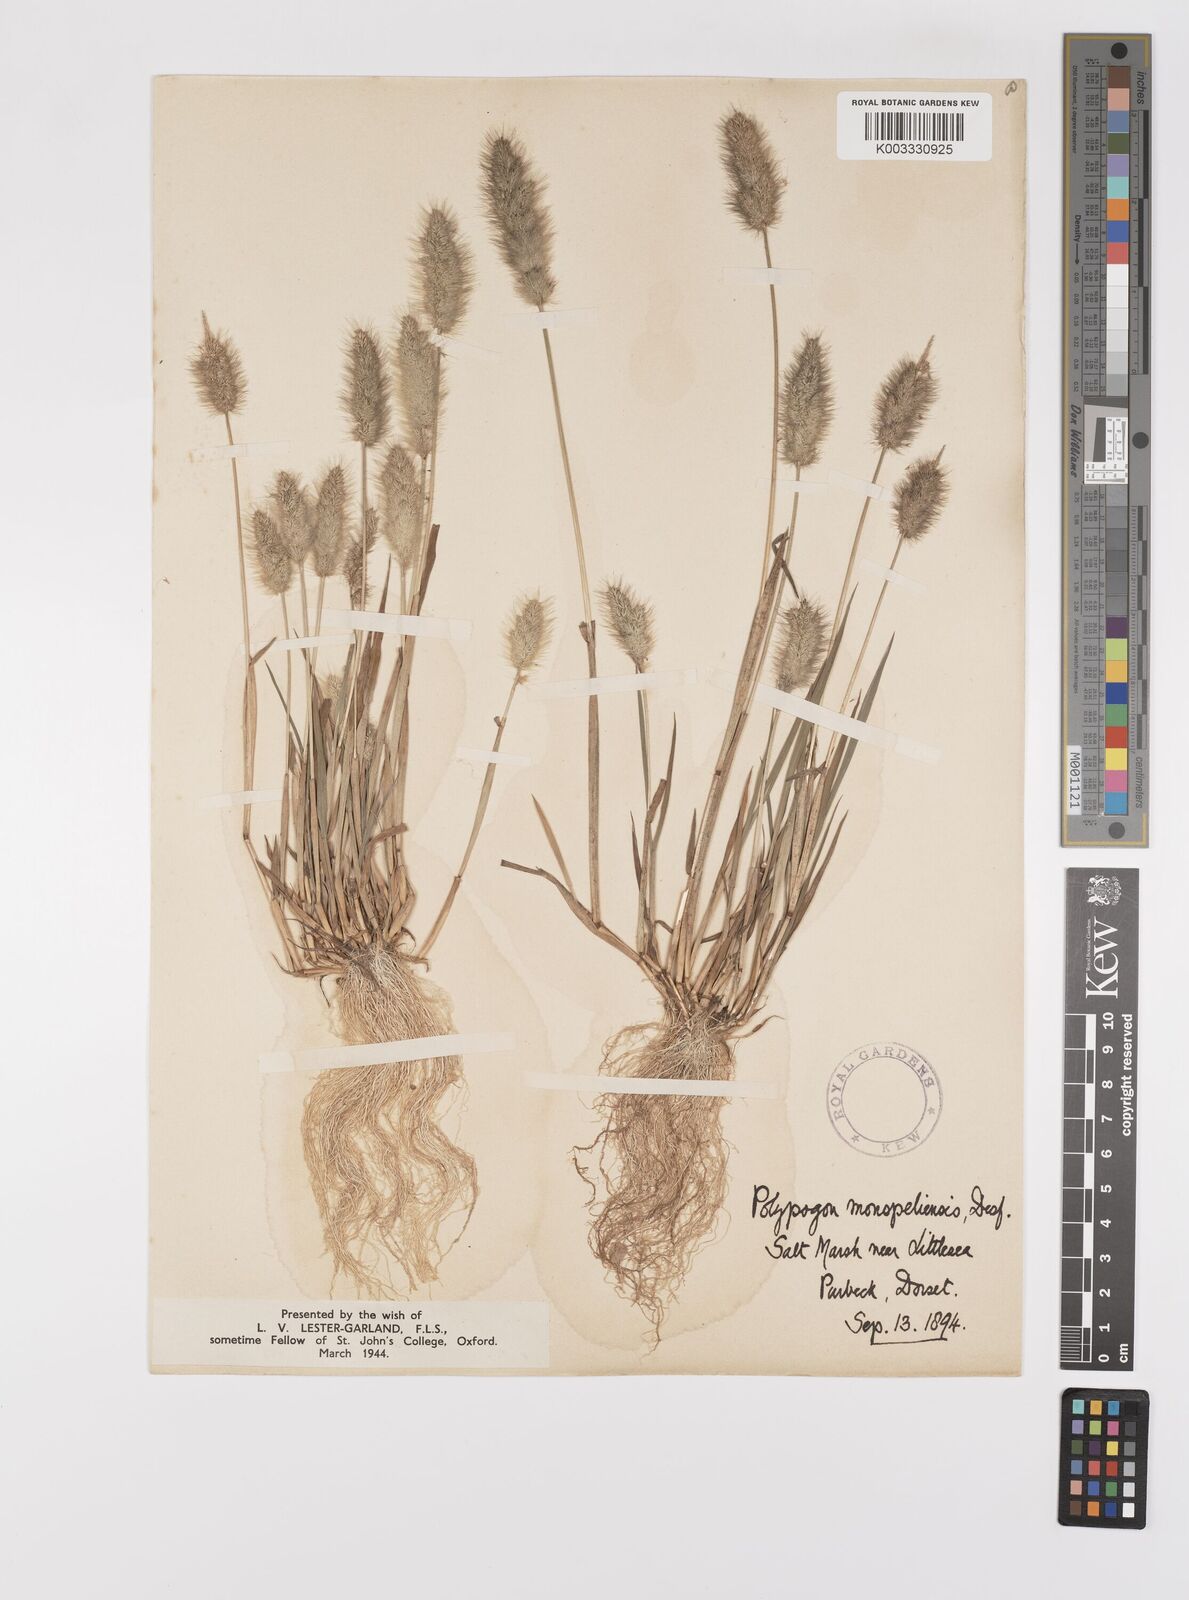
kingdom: Plantae
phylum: Tracheophyta
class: Liliopsida
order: Poales
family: Poaceae
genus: Polypogon
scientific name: Polypogon monspeliensis
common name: Annual rabbitsfoot grass
